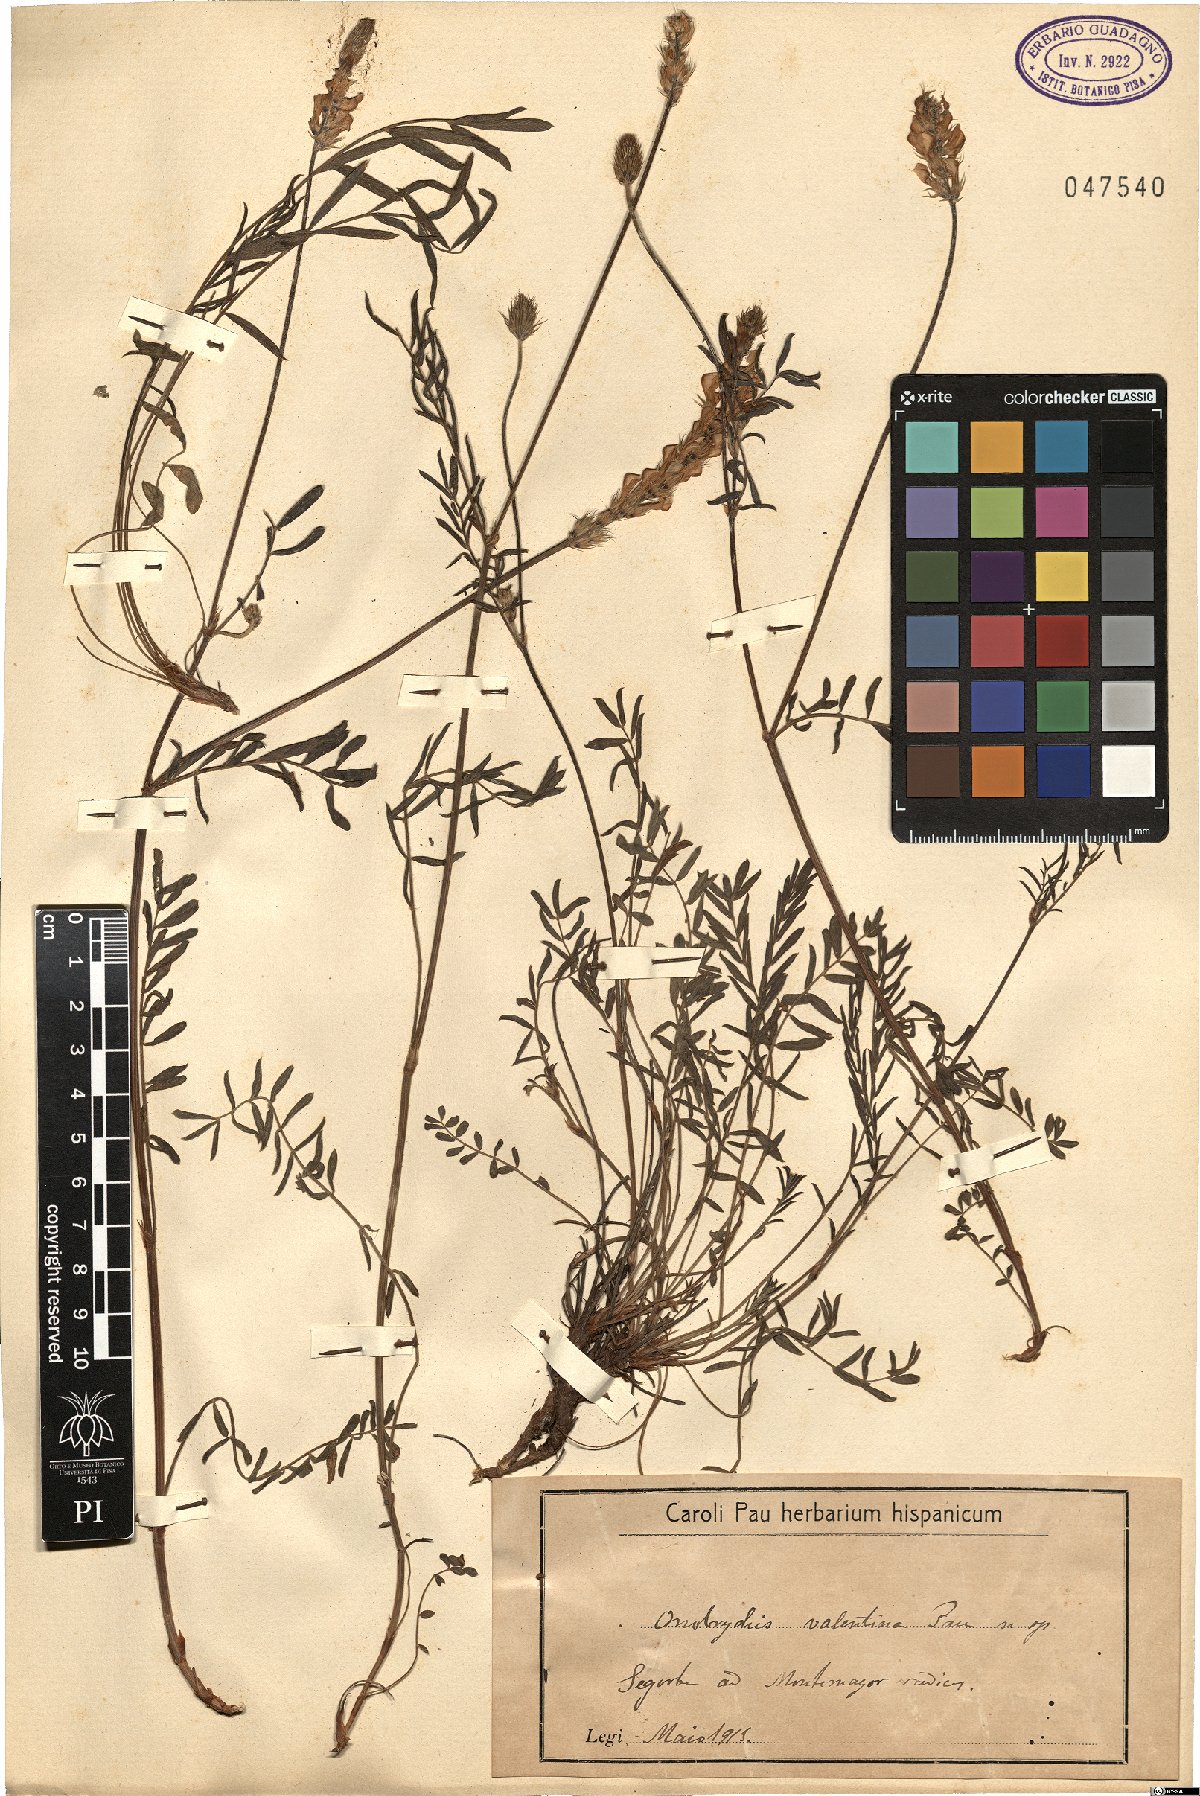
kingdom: Plantae
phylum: Tracheophyta
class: Magnoliopsida
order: Fabales
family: Fabaceae
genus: Onobrychis
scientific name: Onobrychis
